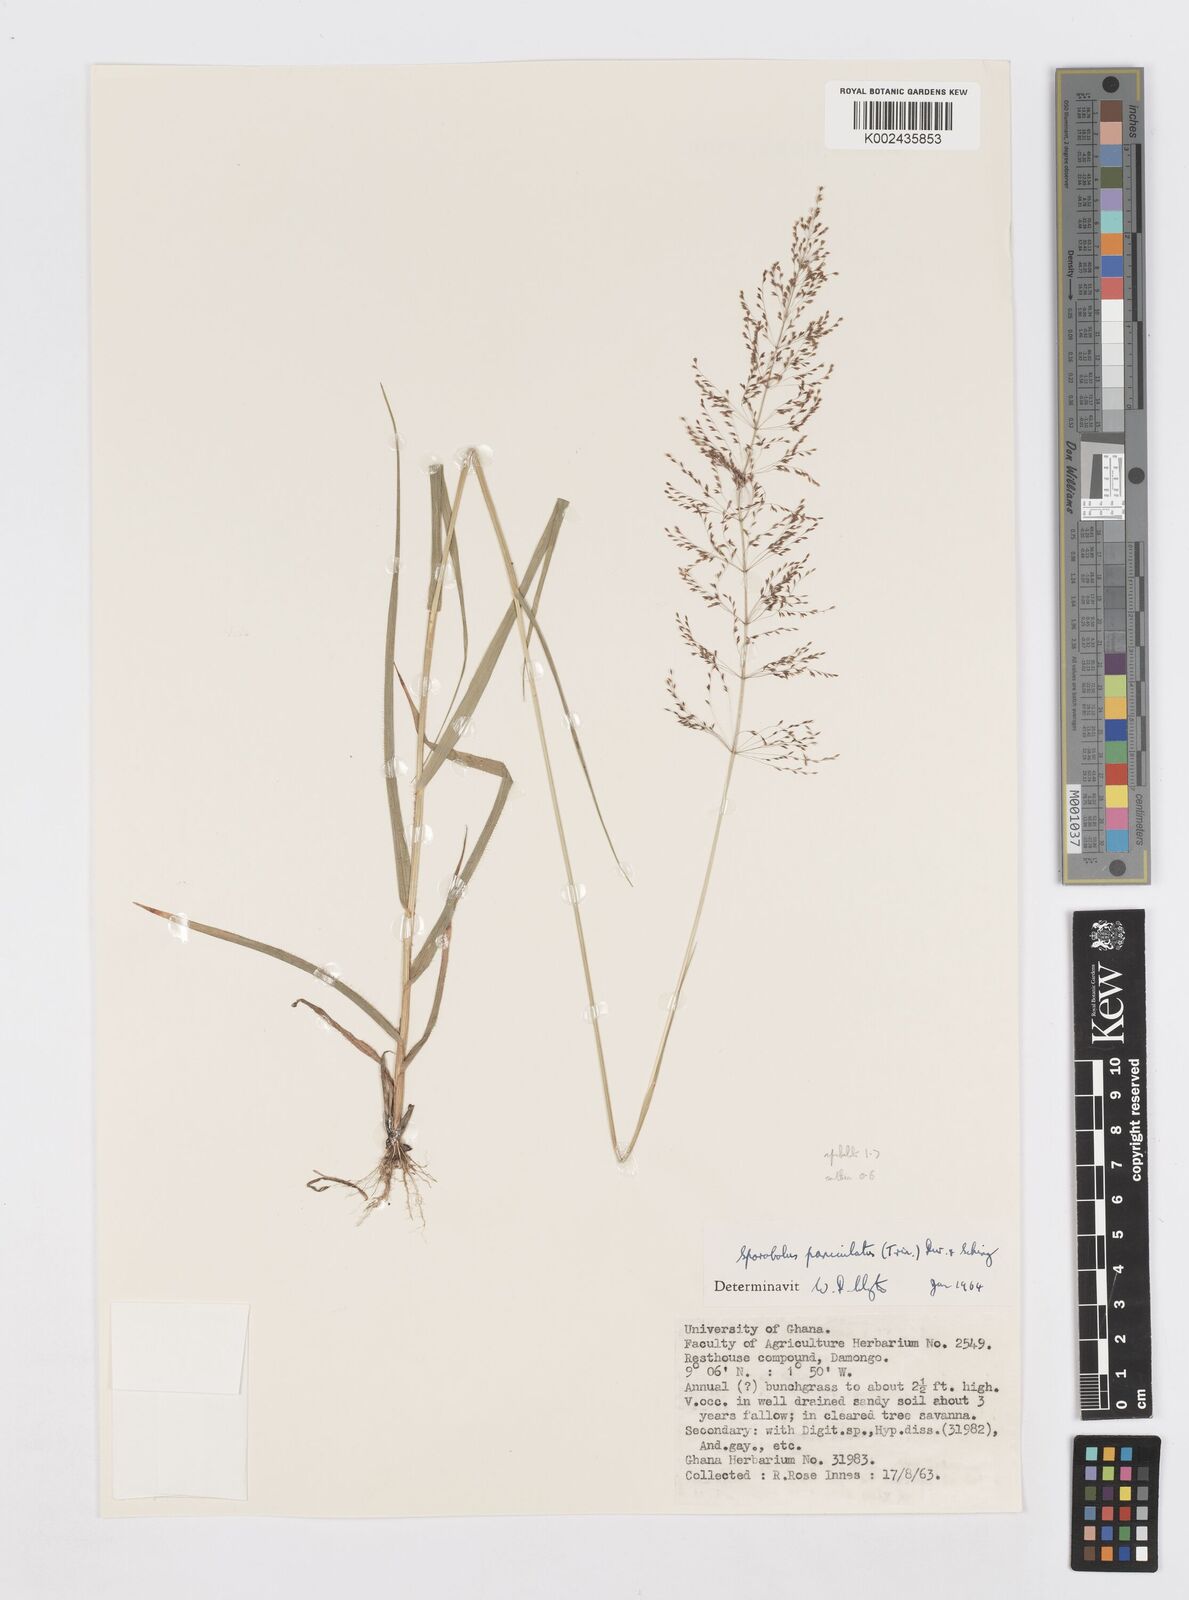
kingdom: Plantae
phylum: Tracheophyta
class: Liliopsida
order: Poales
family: Poaceae
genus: Sporobolus
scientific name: Sporobolus paniculatus
